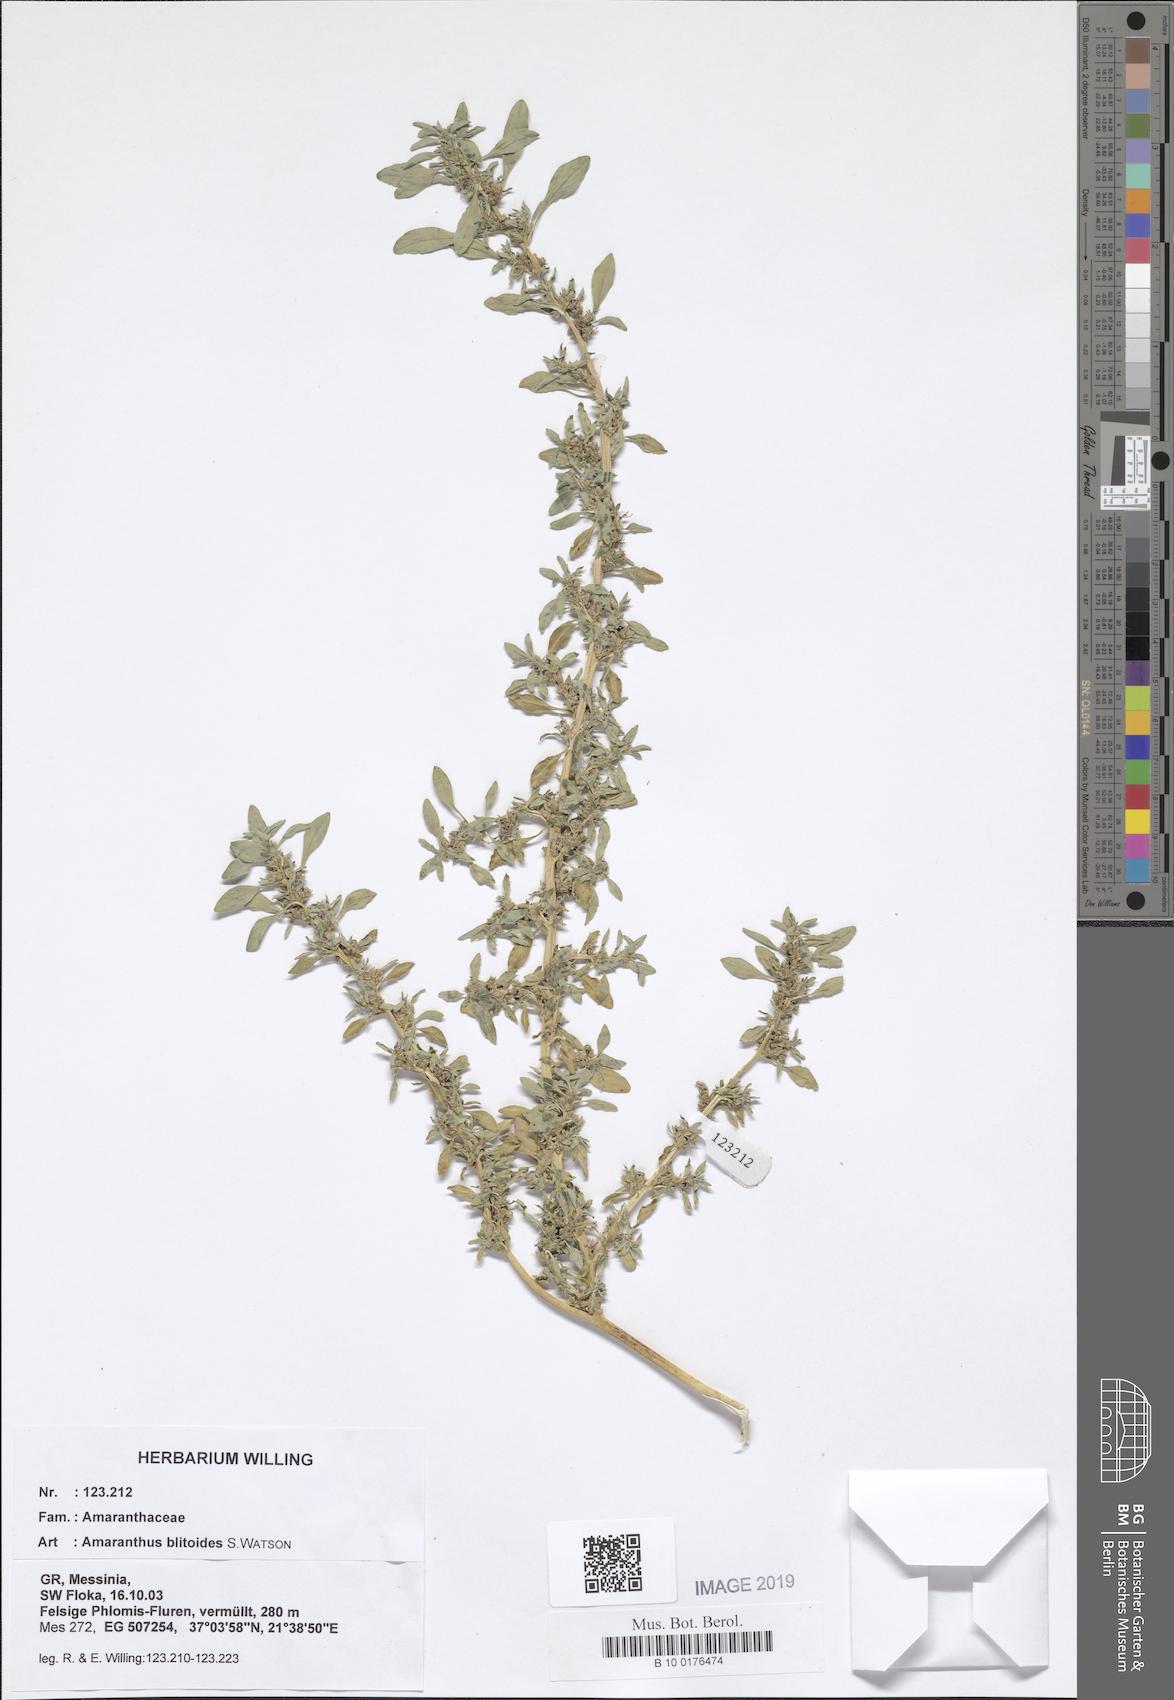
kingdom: Plantae
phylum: Tracheophyta
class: Magnoliopsida
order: Caryophyllales
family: Amaranthaceae
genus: Amaranthus
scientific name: Amaranthus blitoides
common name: Prostrate pigweed
